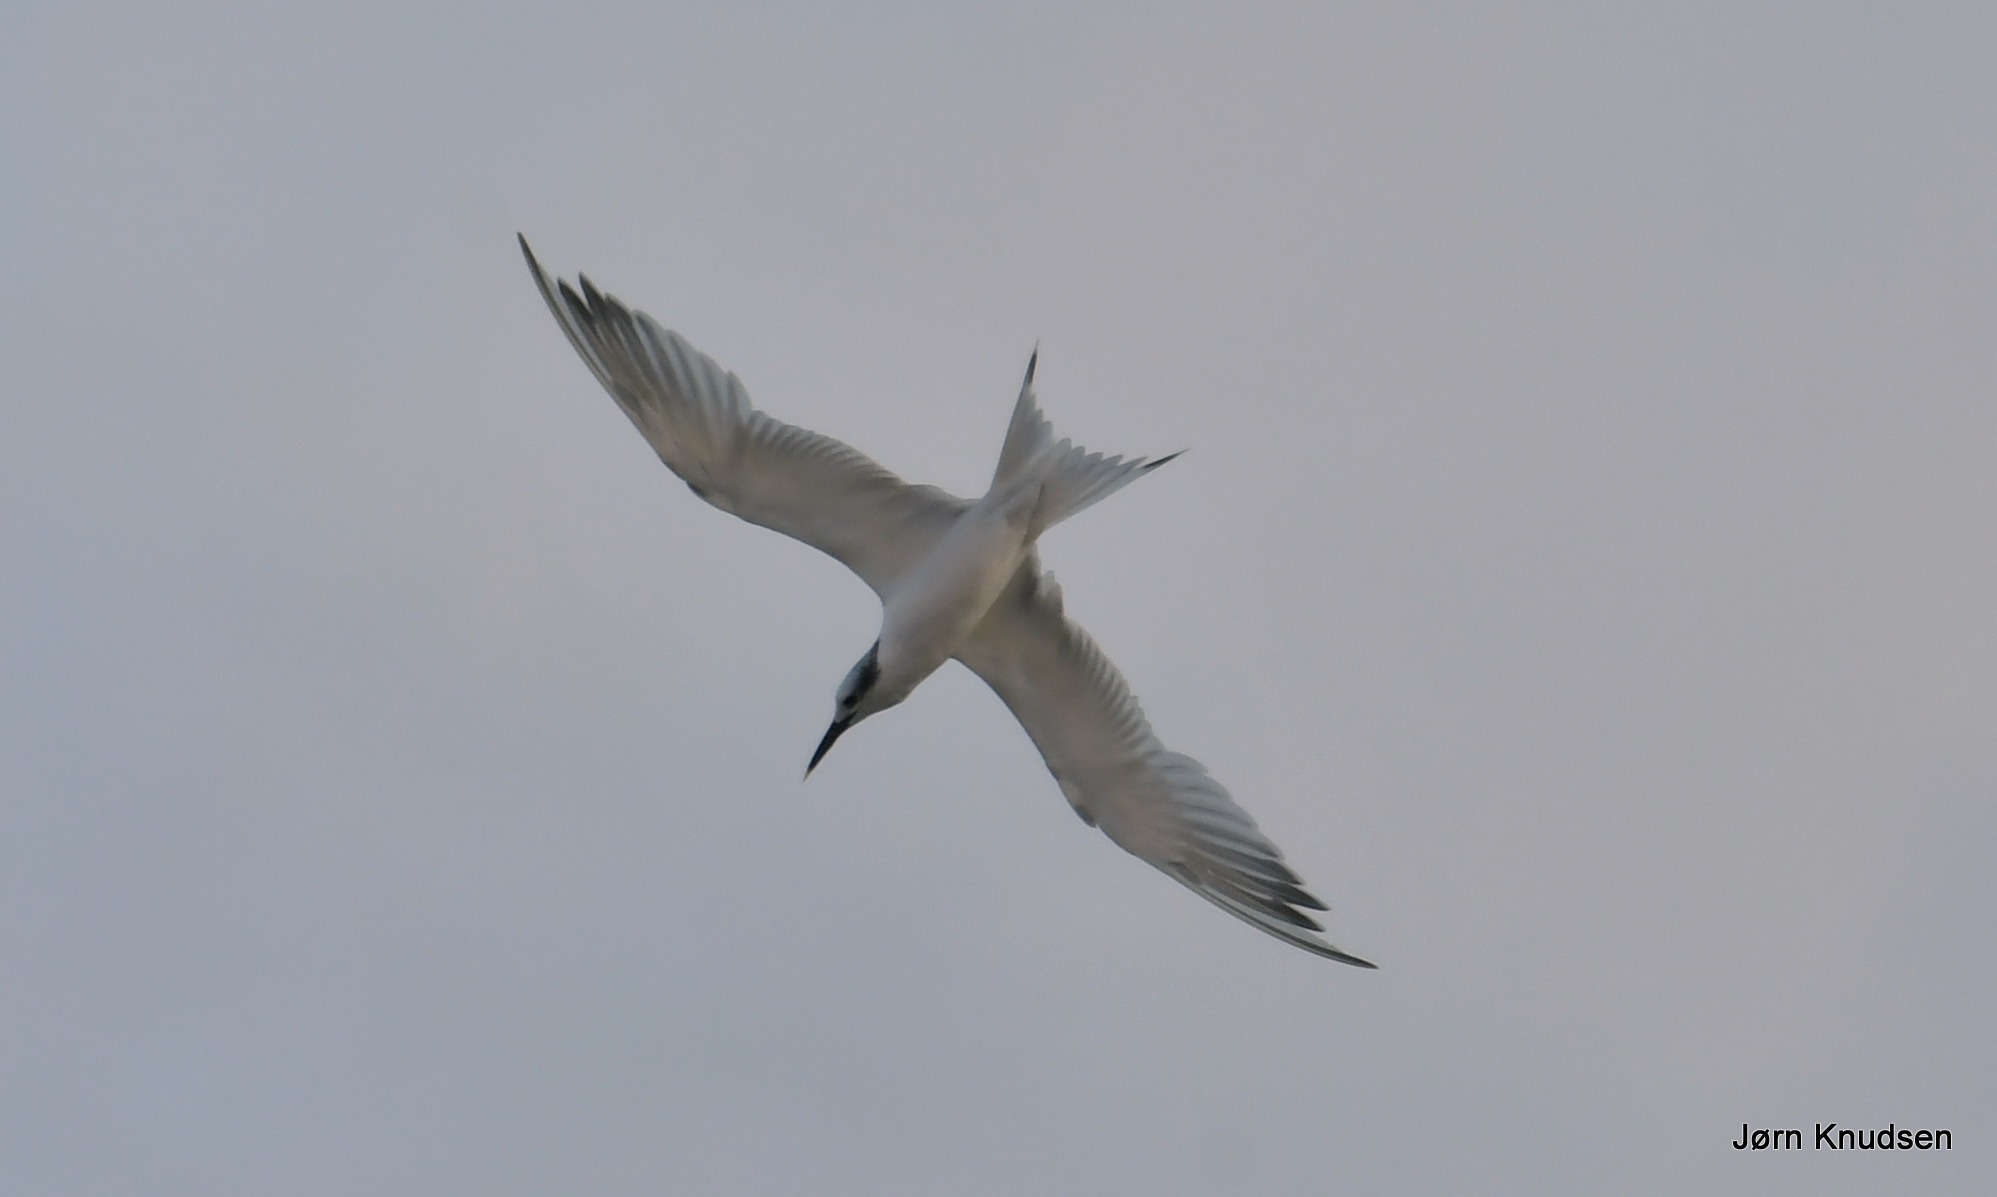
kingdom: Animalia
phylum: Chordata
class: Aves
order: Charadriiformes
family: Laridae
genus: Thalasseus
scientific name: Thalasseus sandvicensis
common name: Splitterne
